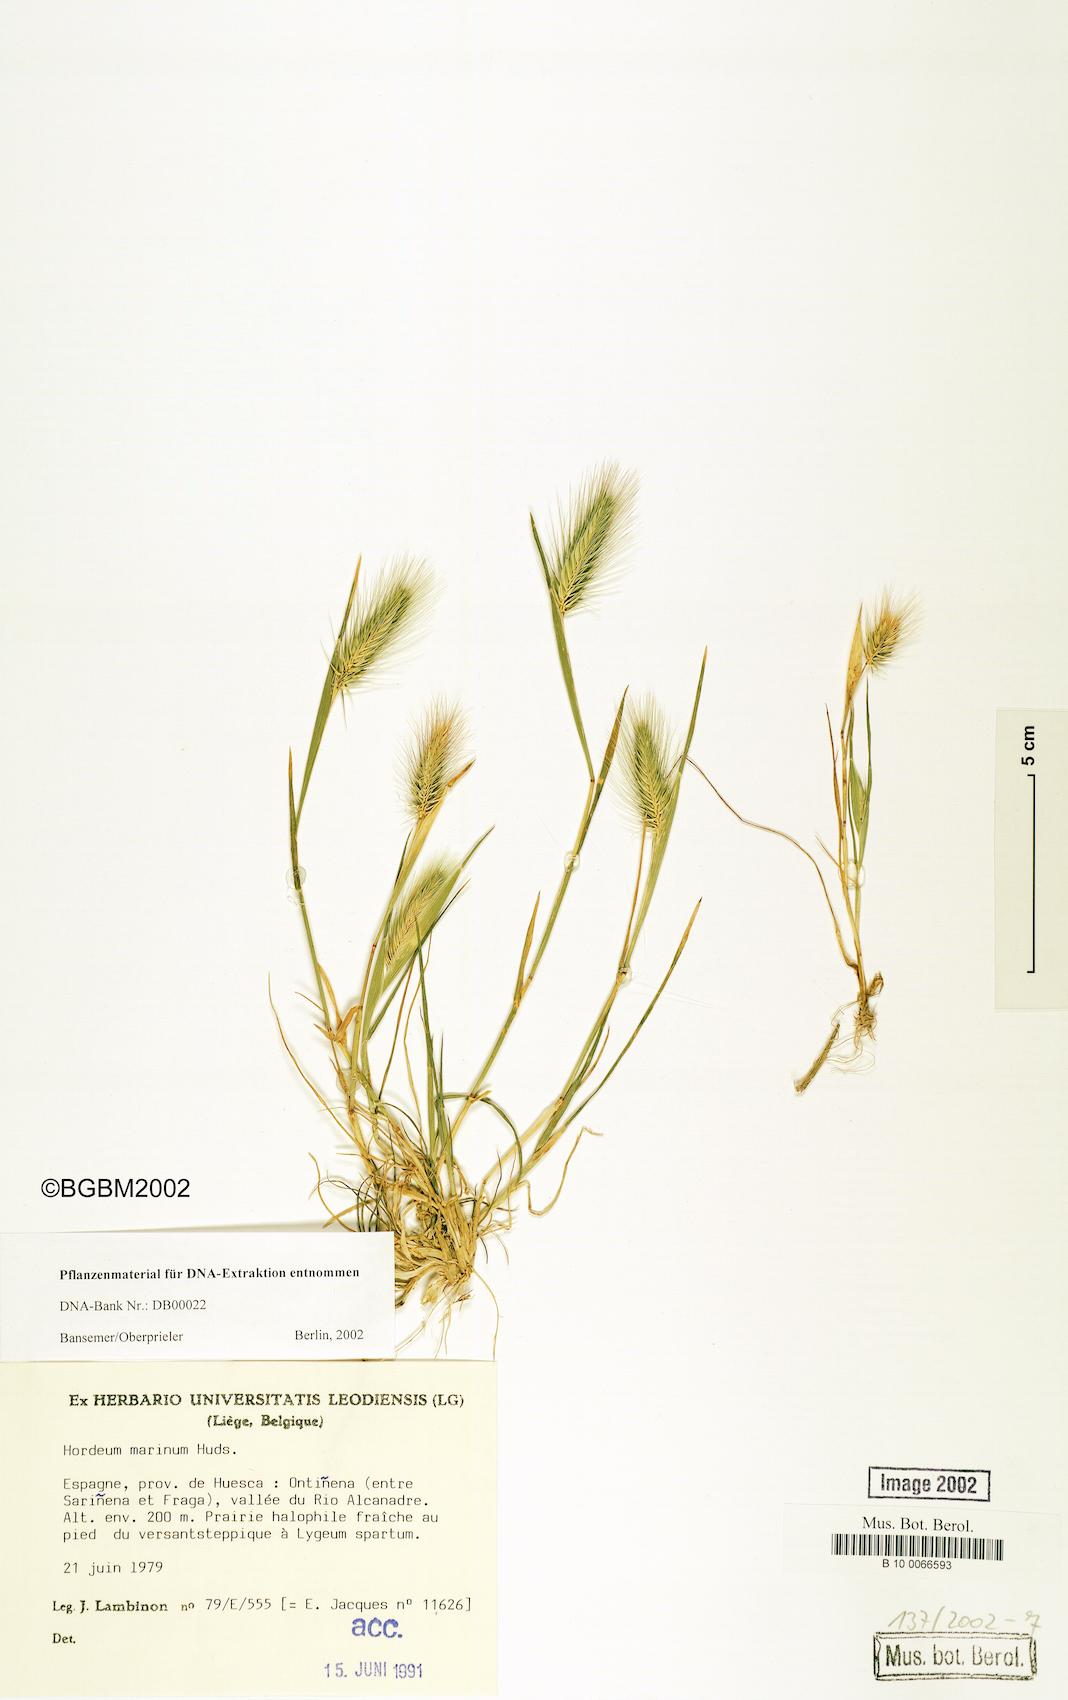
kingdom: Plantae
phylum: Tracheophyta
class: Liliopsida
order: Poales
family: Poaceae
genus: Hordeum
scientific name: Hordeum marinum
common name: Sea barley
